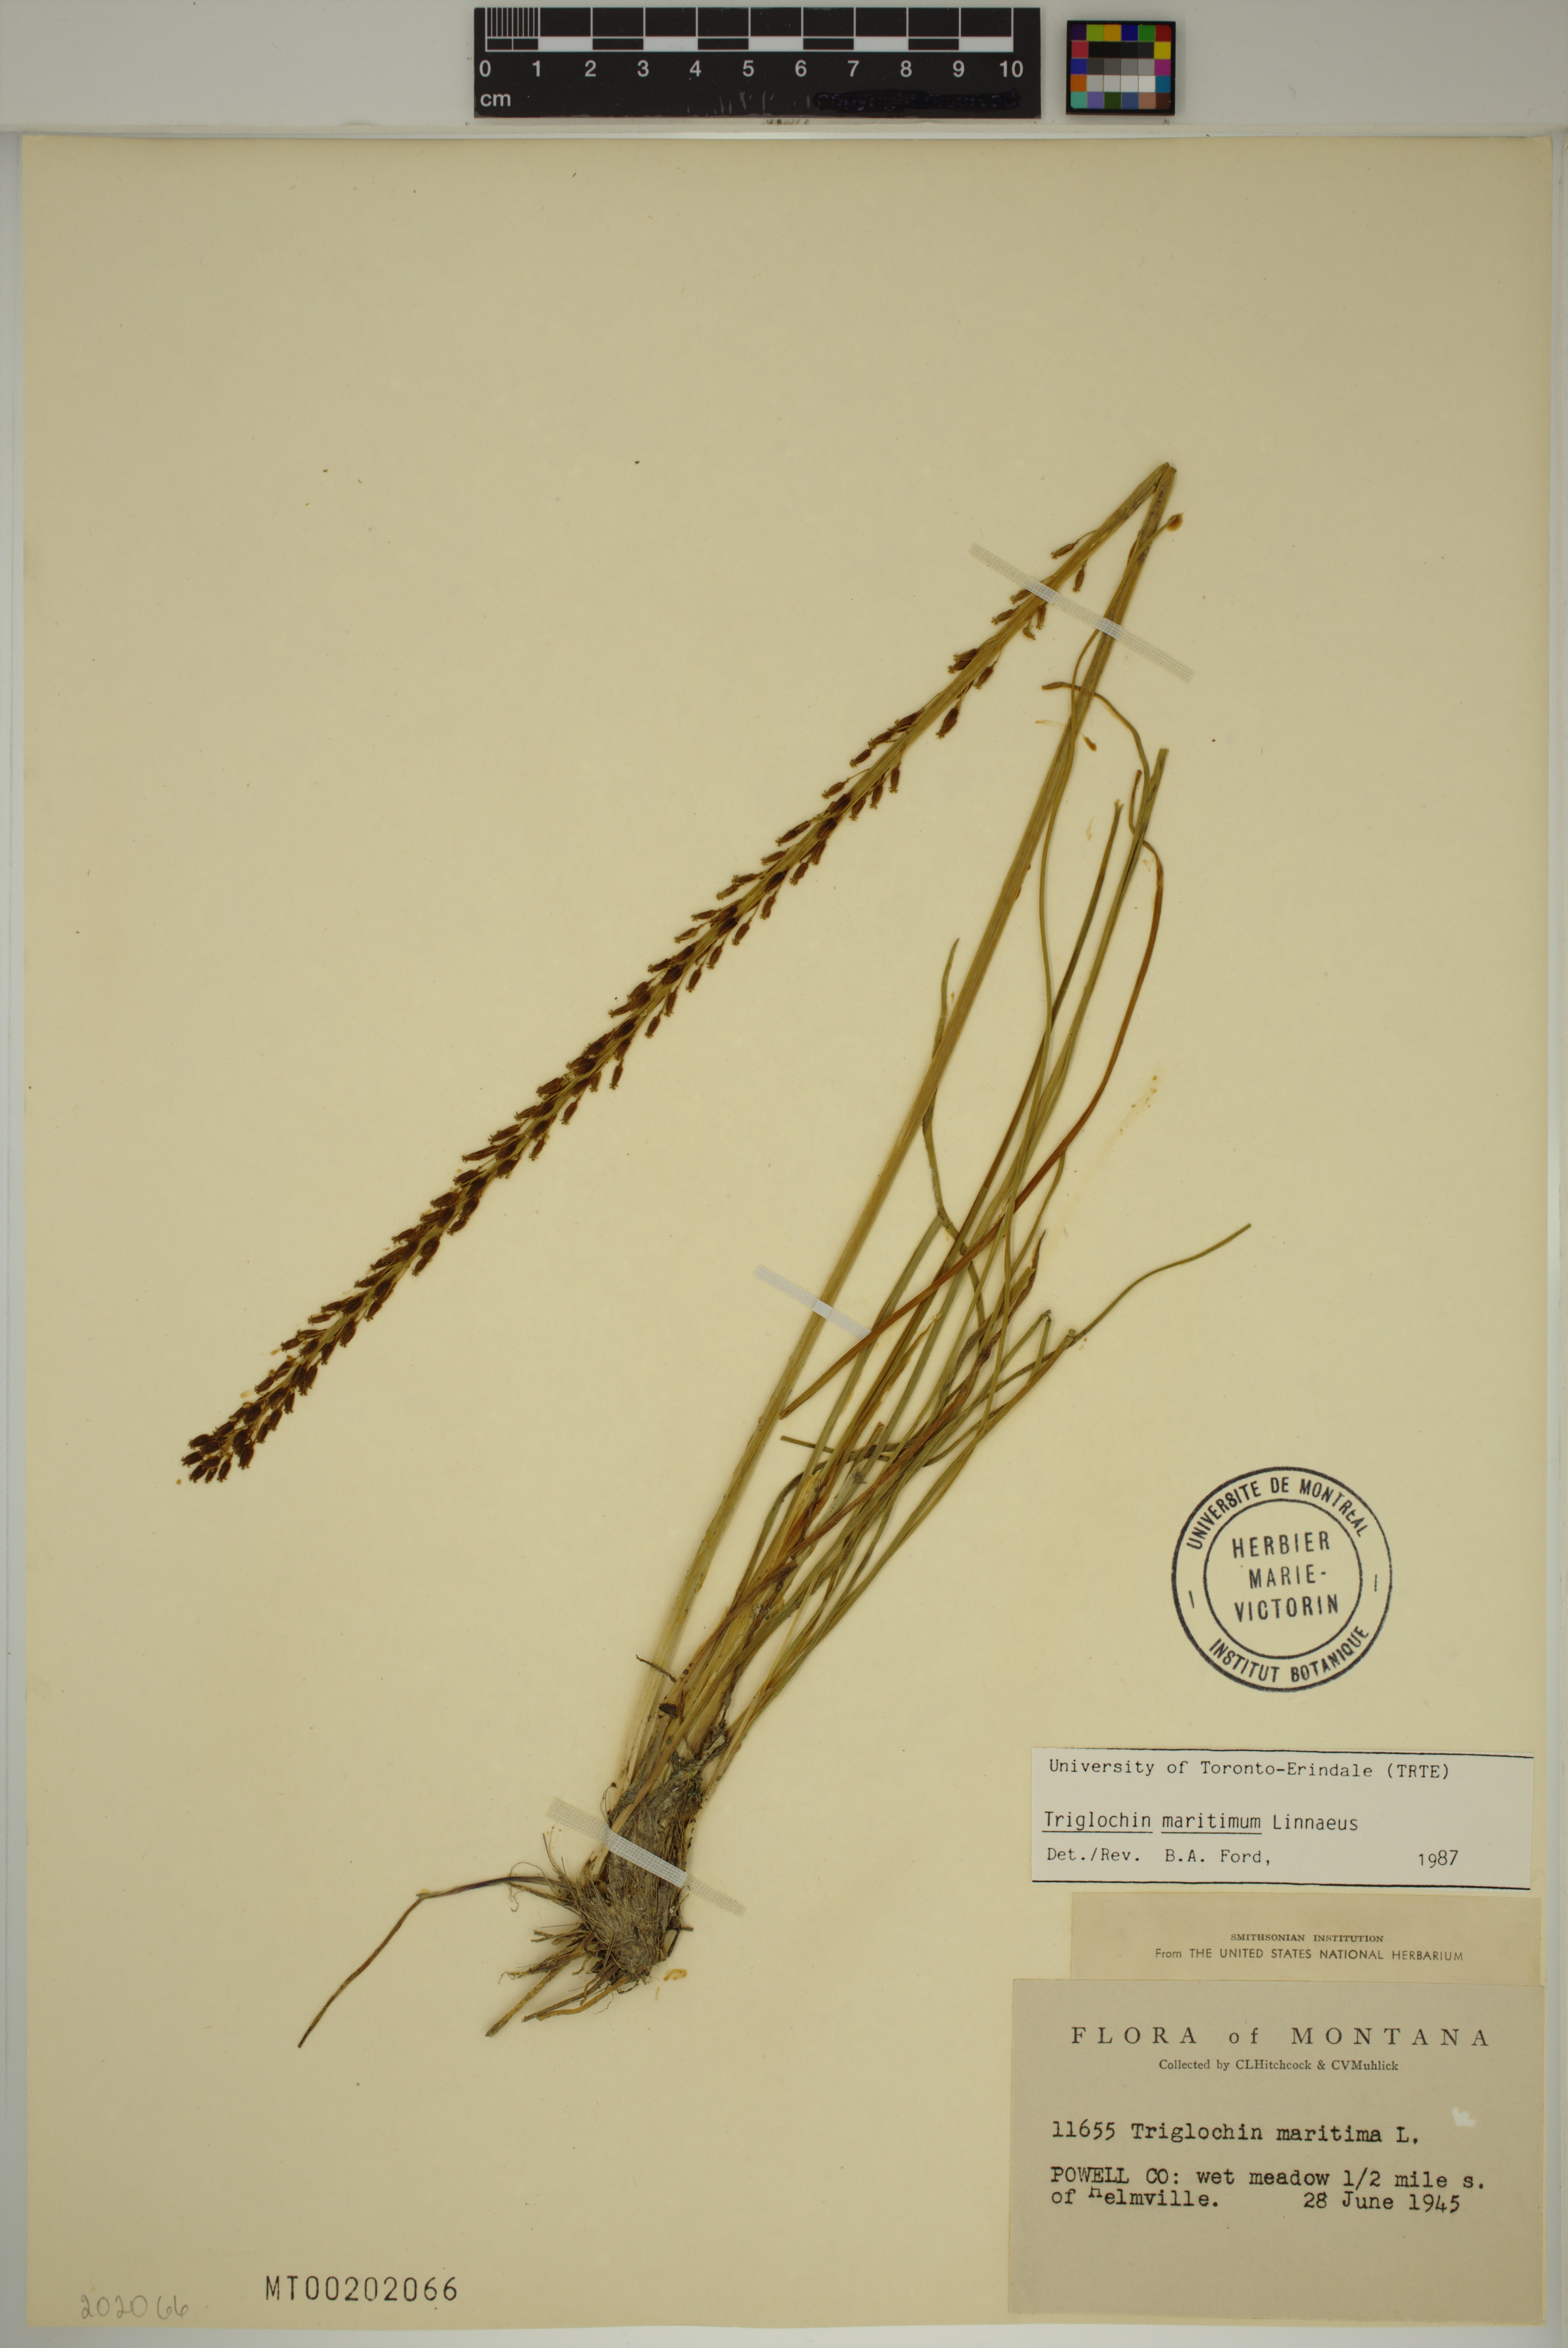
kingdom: Plantae
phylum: Tracheophyta
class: Liliopsida
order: Alismatales
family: Juncaginaceae
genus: Triglochin
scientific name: Triglochin maritima
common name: Sea arrowgrass
